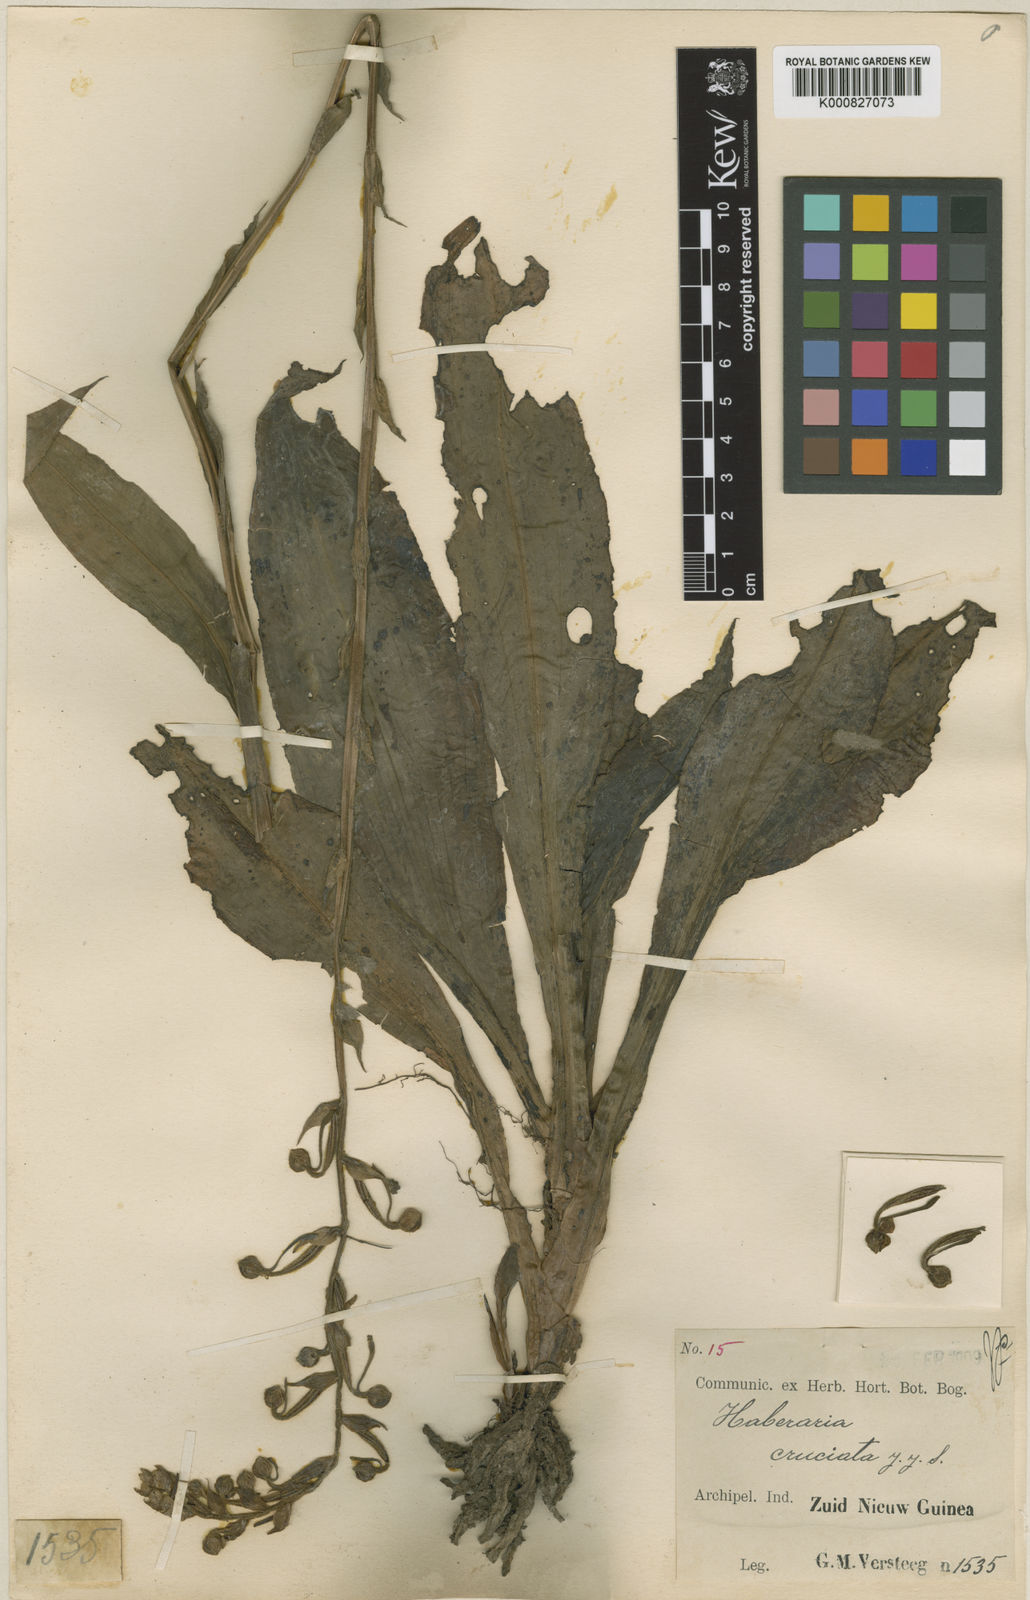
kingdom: Plantae
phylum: Tracheophyta
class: Liliopsida
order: Asparagales
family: Orchidaceae
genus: Habenaria
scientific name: Habenaria cruciata
